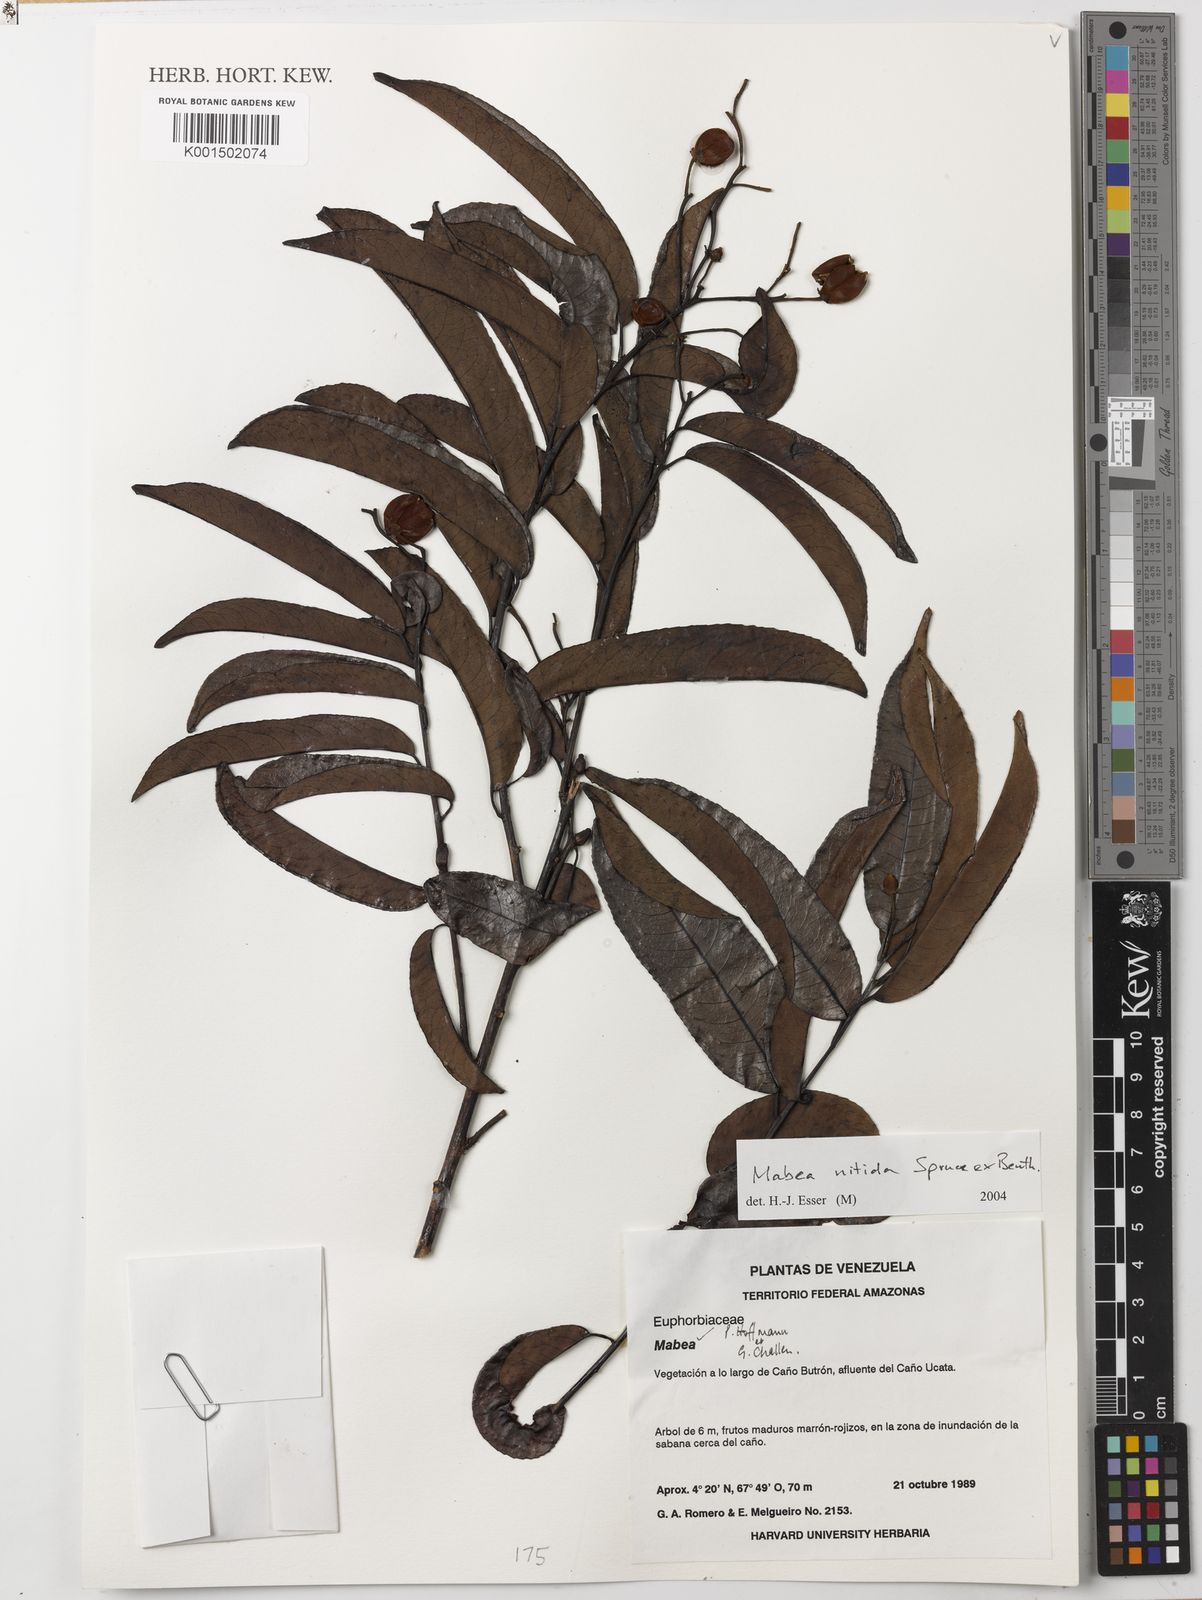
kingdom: Plantae
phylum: Tracheophyta
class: Magnoliopsida
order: Malpighiales
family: Euphorbiaceae
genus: Mabea
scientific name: Mabea nitida
